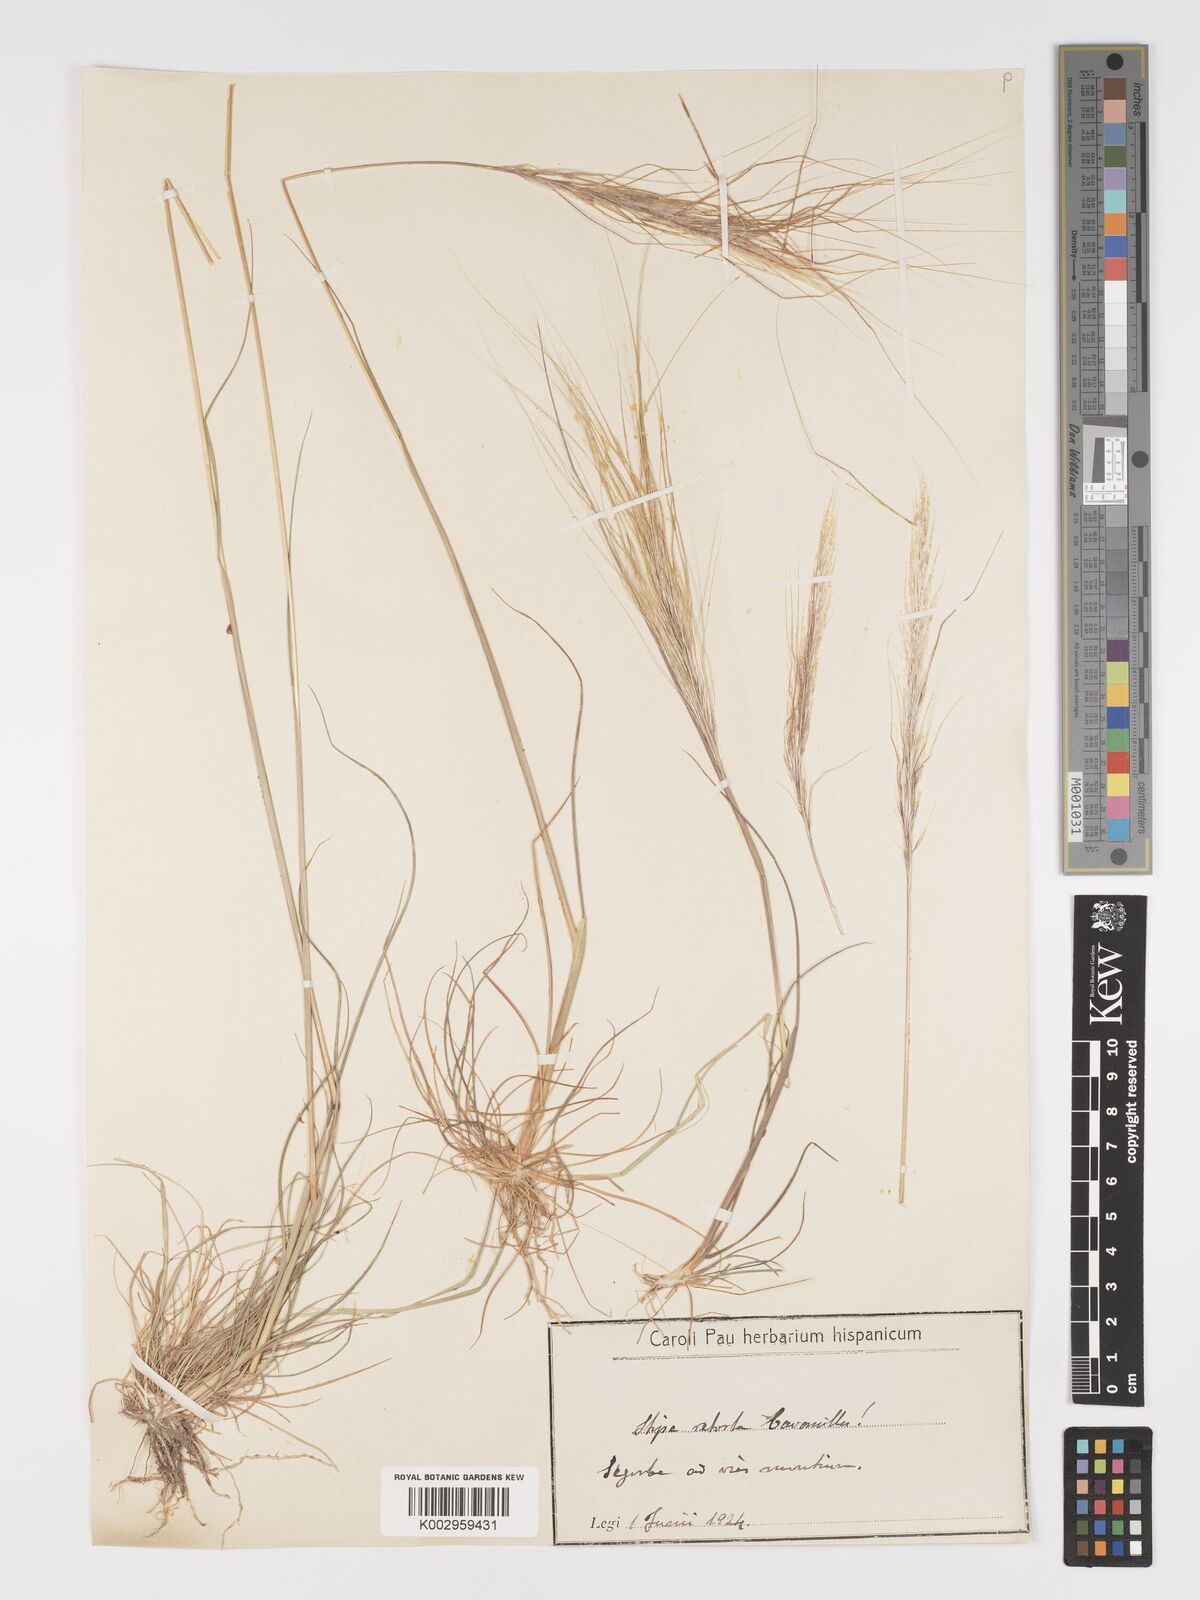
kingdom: Plantae
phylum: Tracheophyta
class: Liliopsida
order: Poales
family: Poaceae
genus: Stipa
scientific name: Stipa
